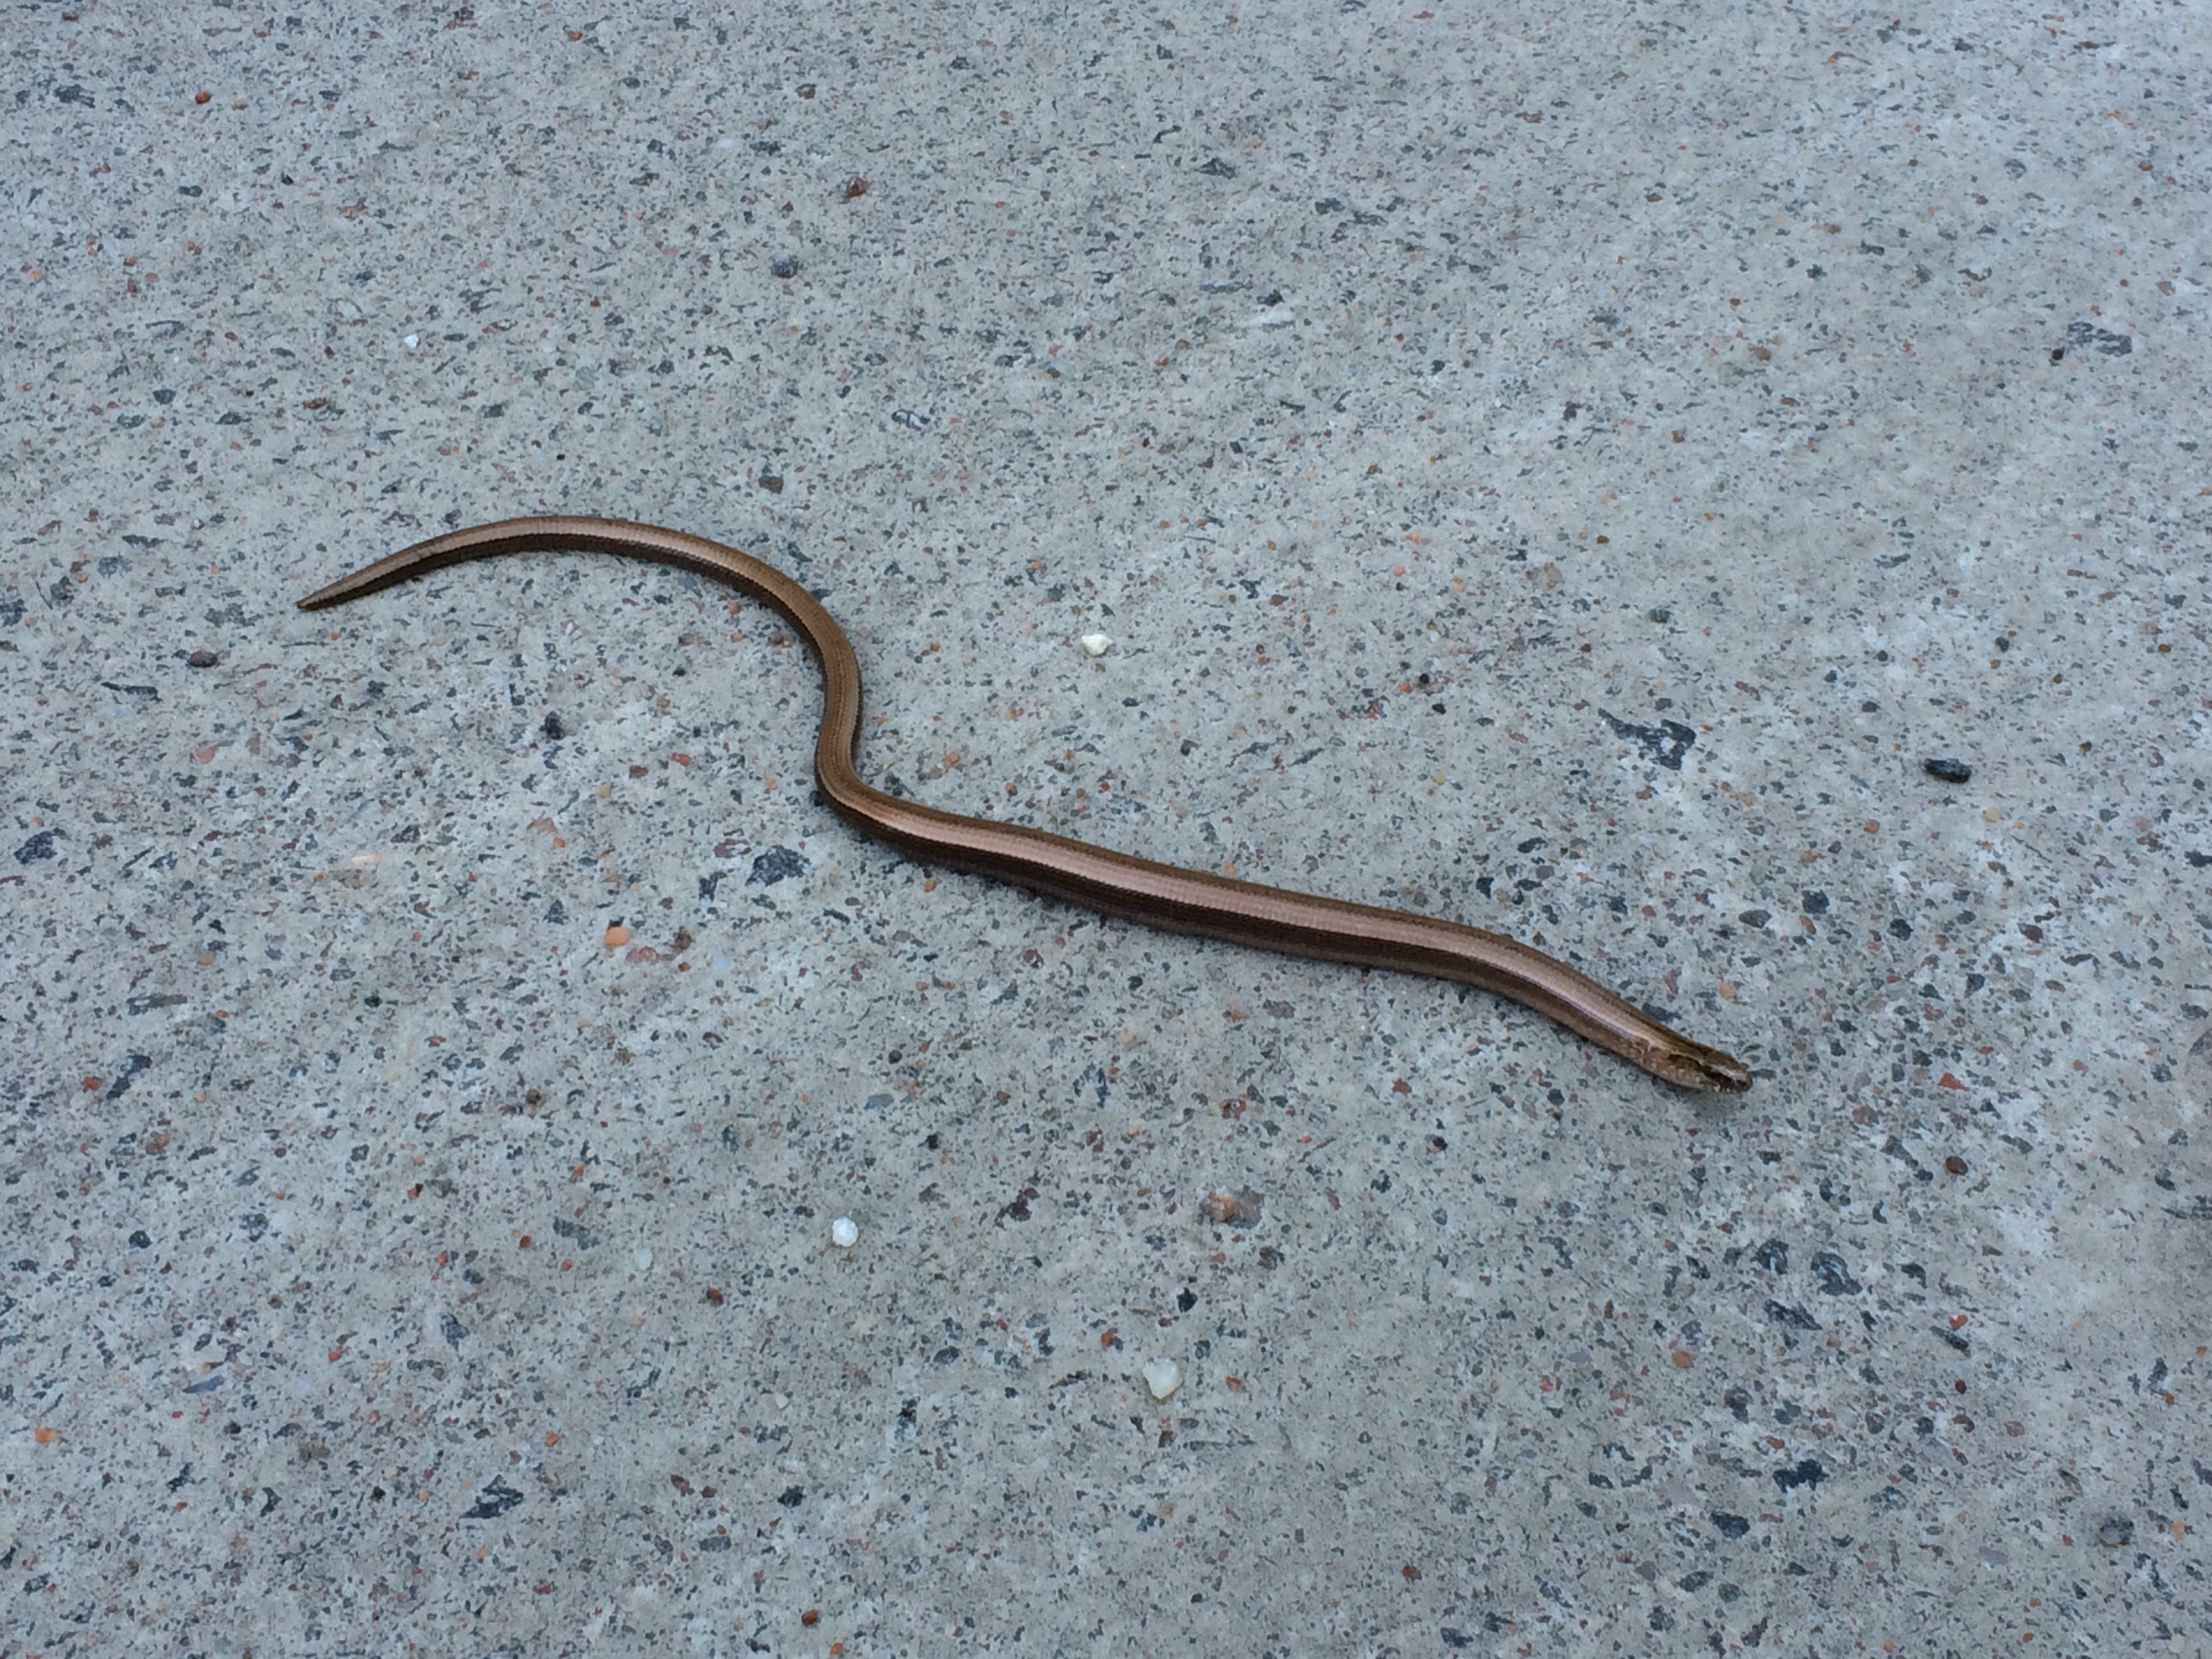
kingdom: Animalia
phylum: Chordata
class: Squamata
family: Anguidae
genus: Anguis
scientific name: Anguis colchica
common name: Slow worm
